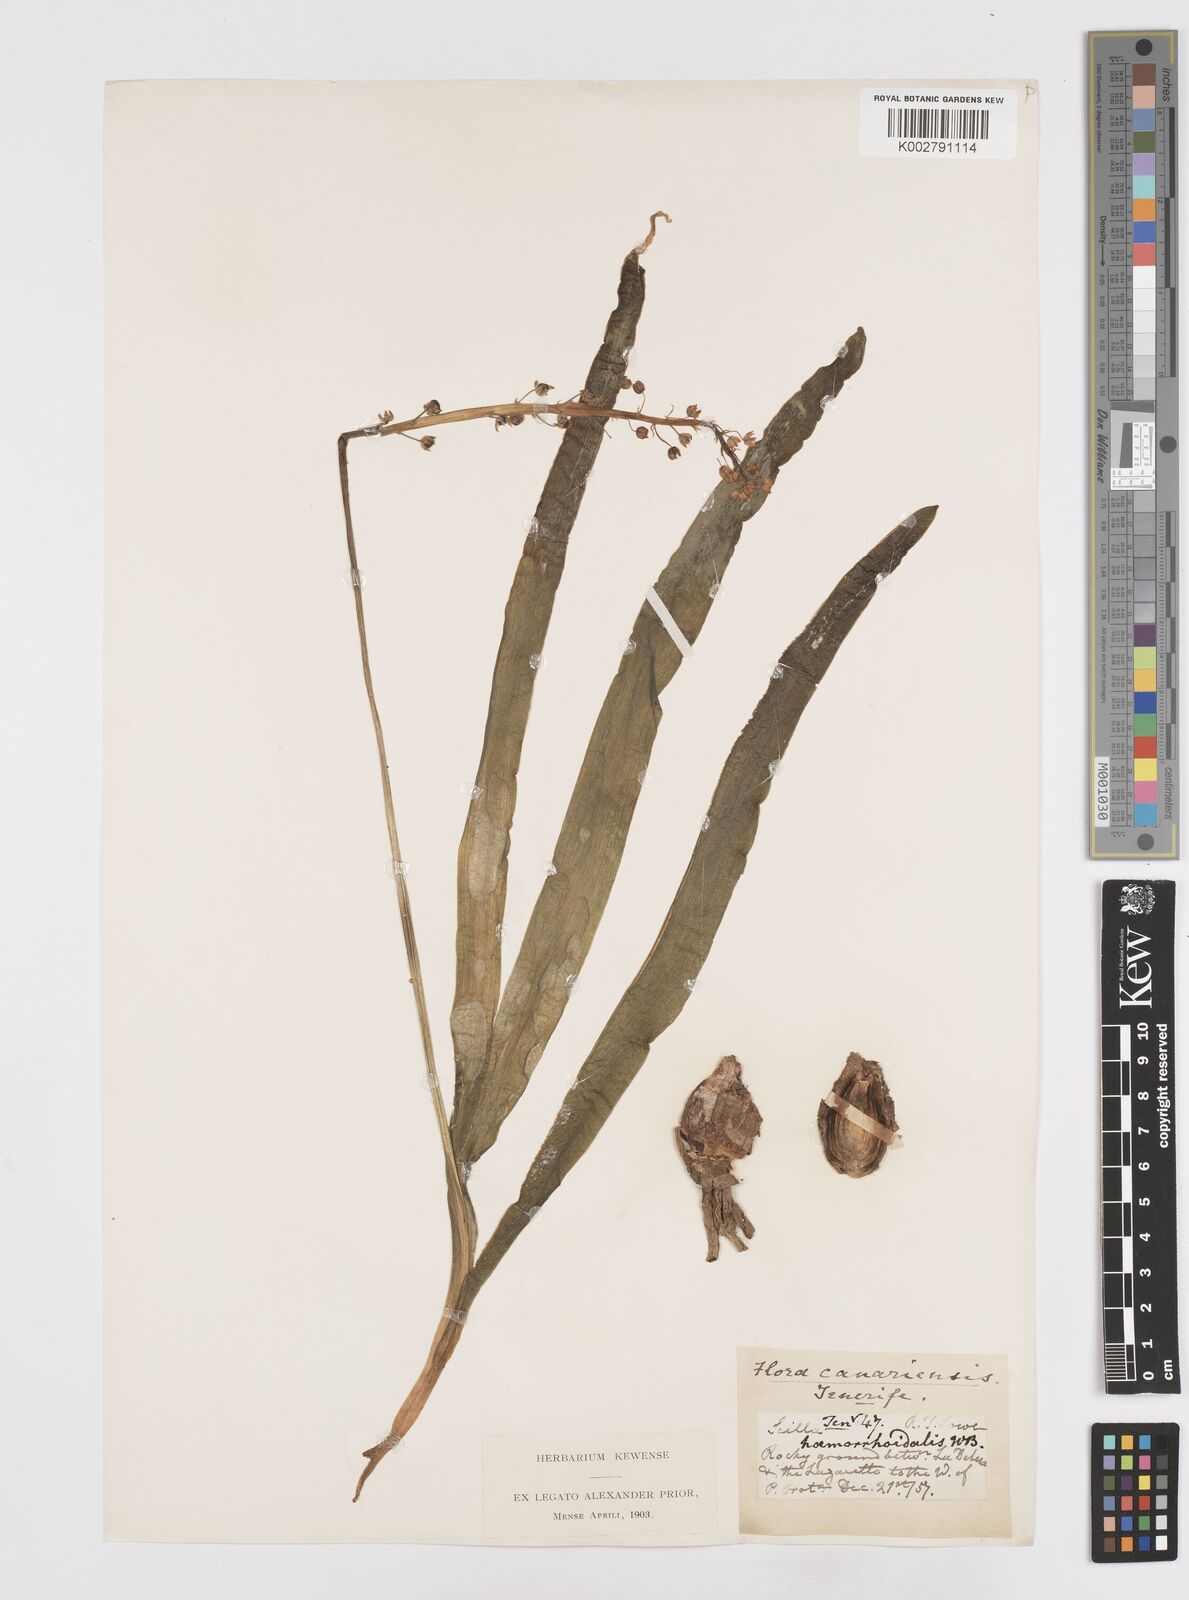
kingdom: Plantae
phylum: Tracheophyta
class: Liliopsida
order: Asparagales
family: Asparagaceae
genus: Scilla
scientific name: Scilla haemorrhoidalis
